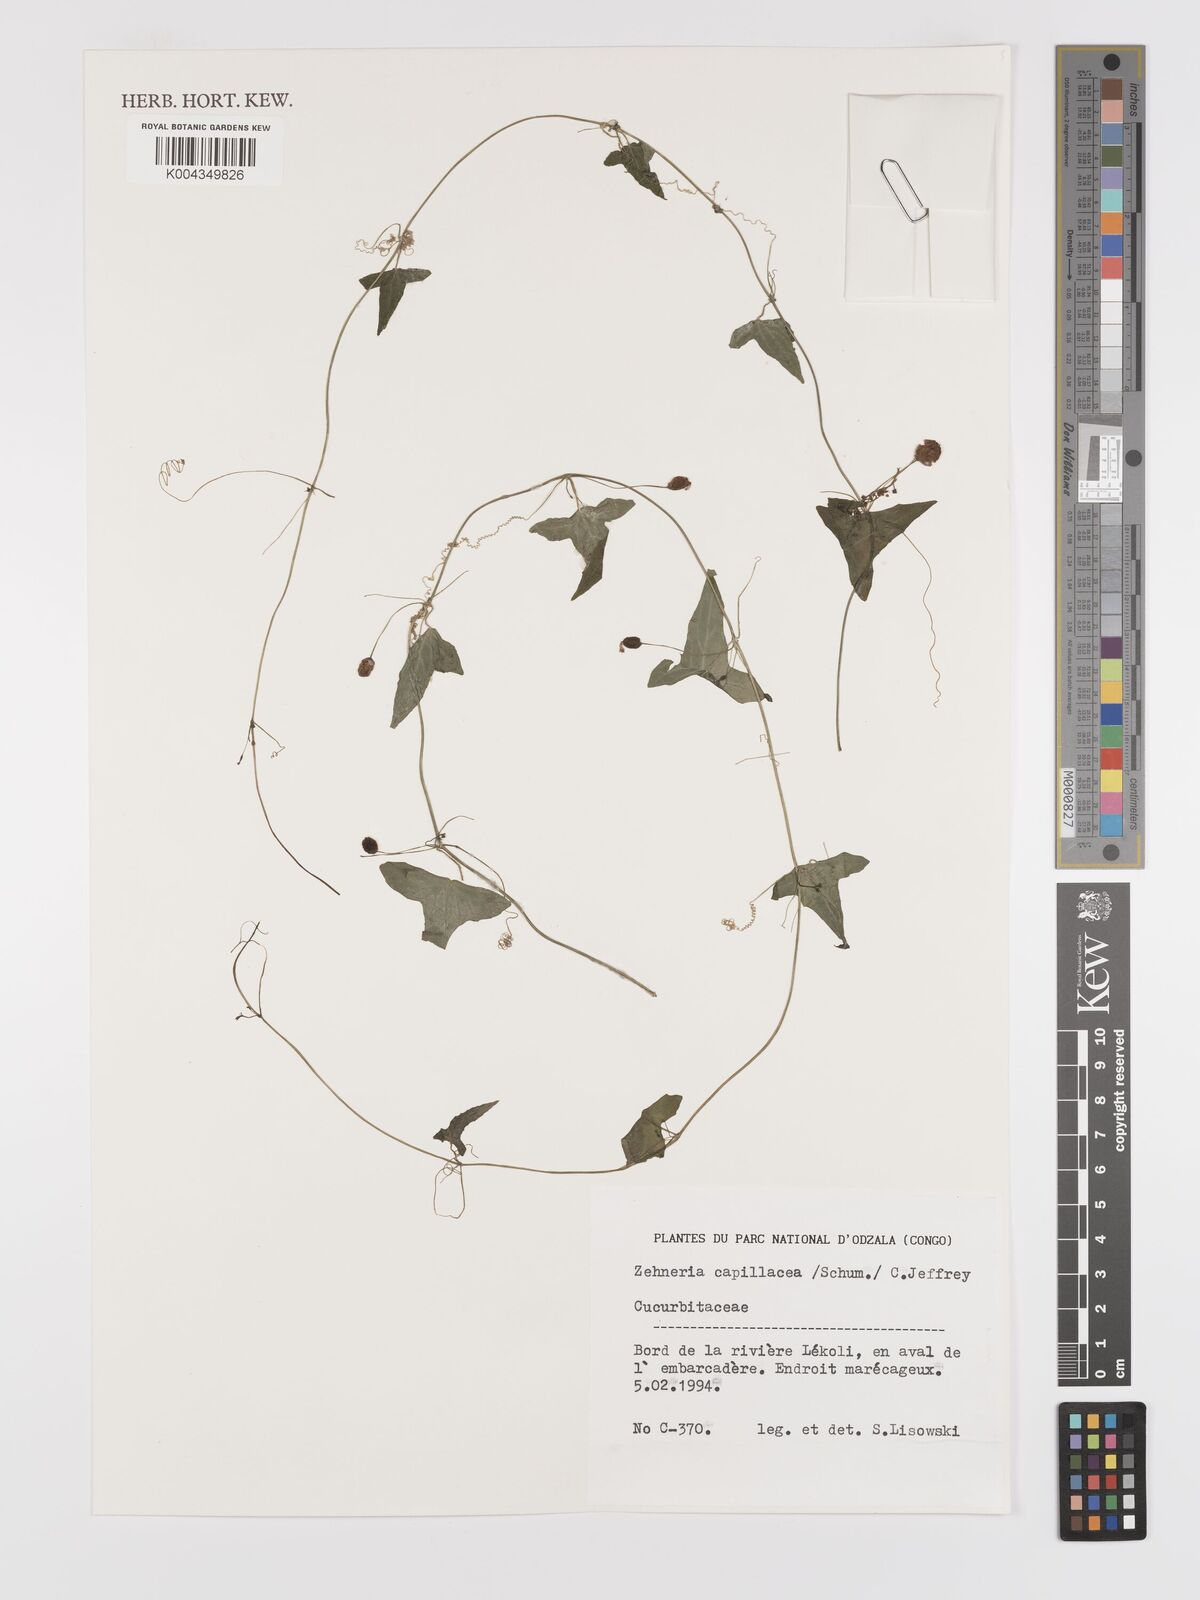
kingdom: Plantae
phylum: Tracheophyta
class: Magnoliopsida
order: Cucurbitales
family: Cucurbitaceae
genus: Zehneria
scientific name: Zehneria
